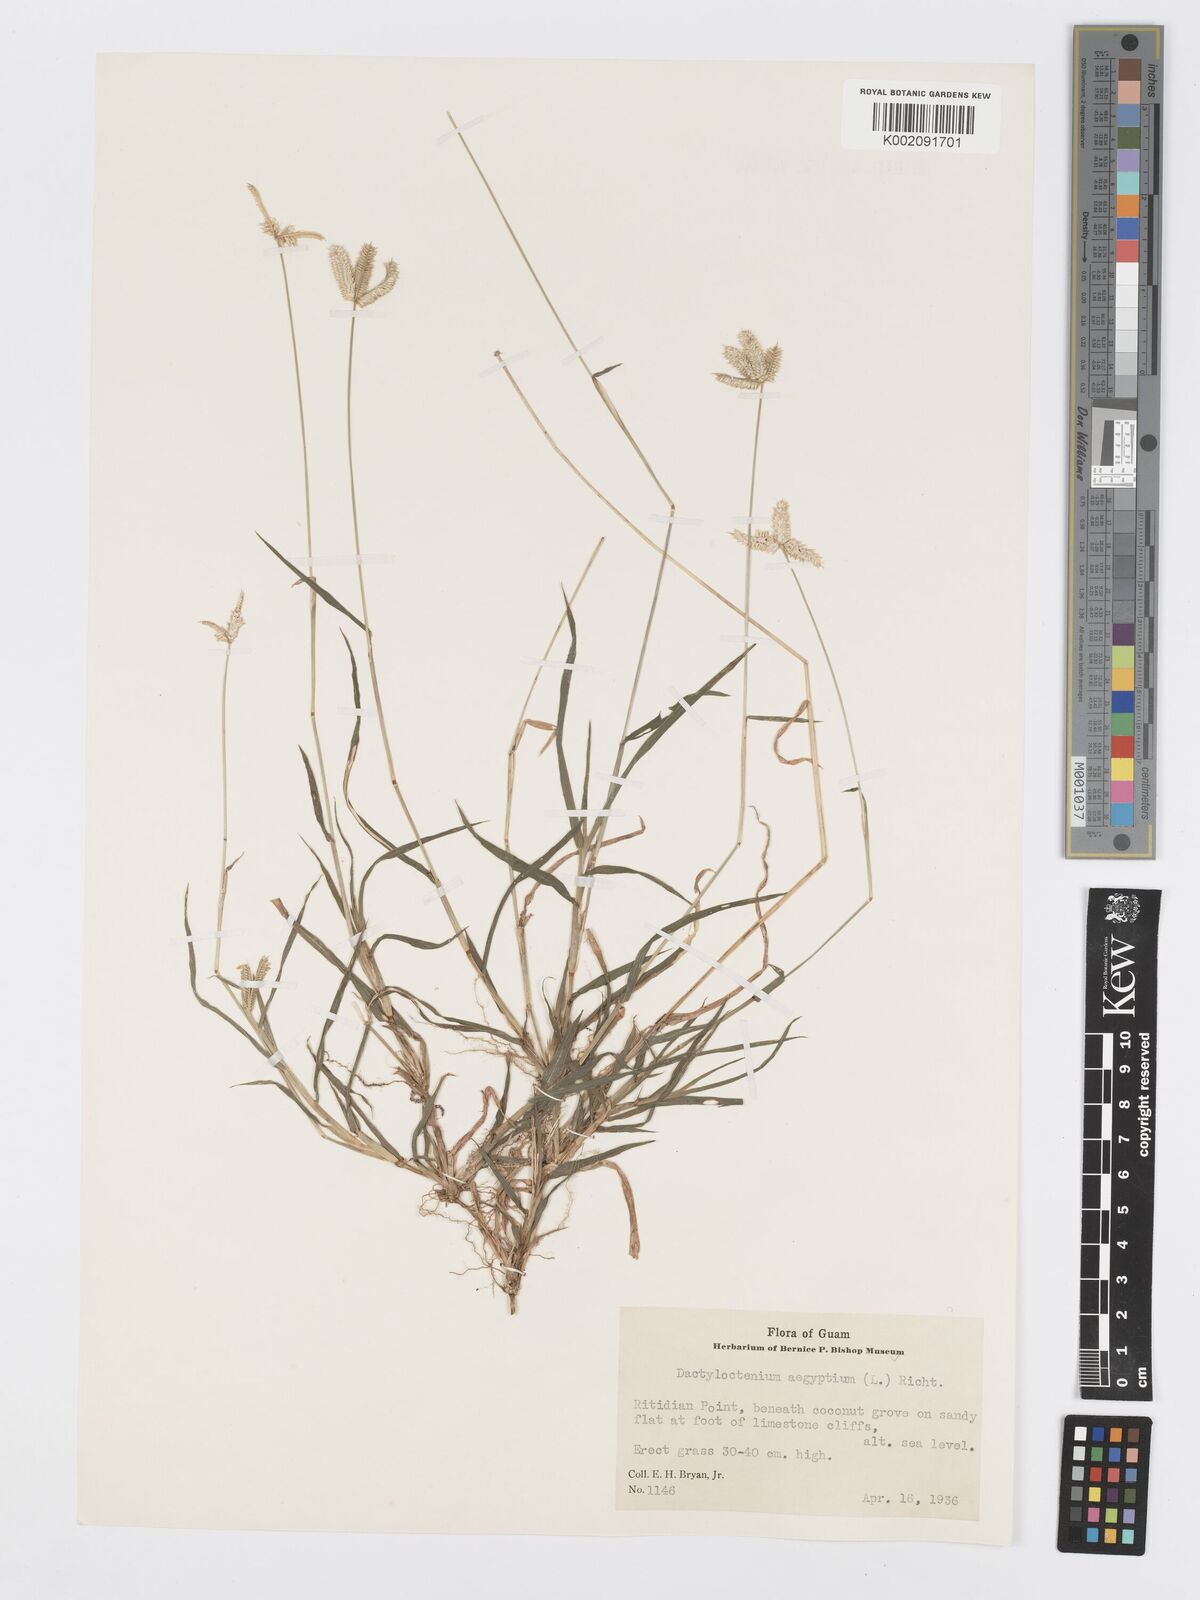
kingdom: Plantae
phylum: Tracheophyta
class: Liliopsida
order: Poales
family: Poaceae
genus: Dactyloctenium
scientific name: Dactyloctenium aegyptium
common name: Egyptian grass
